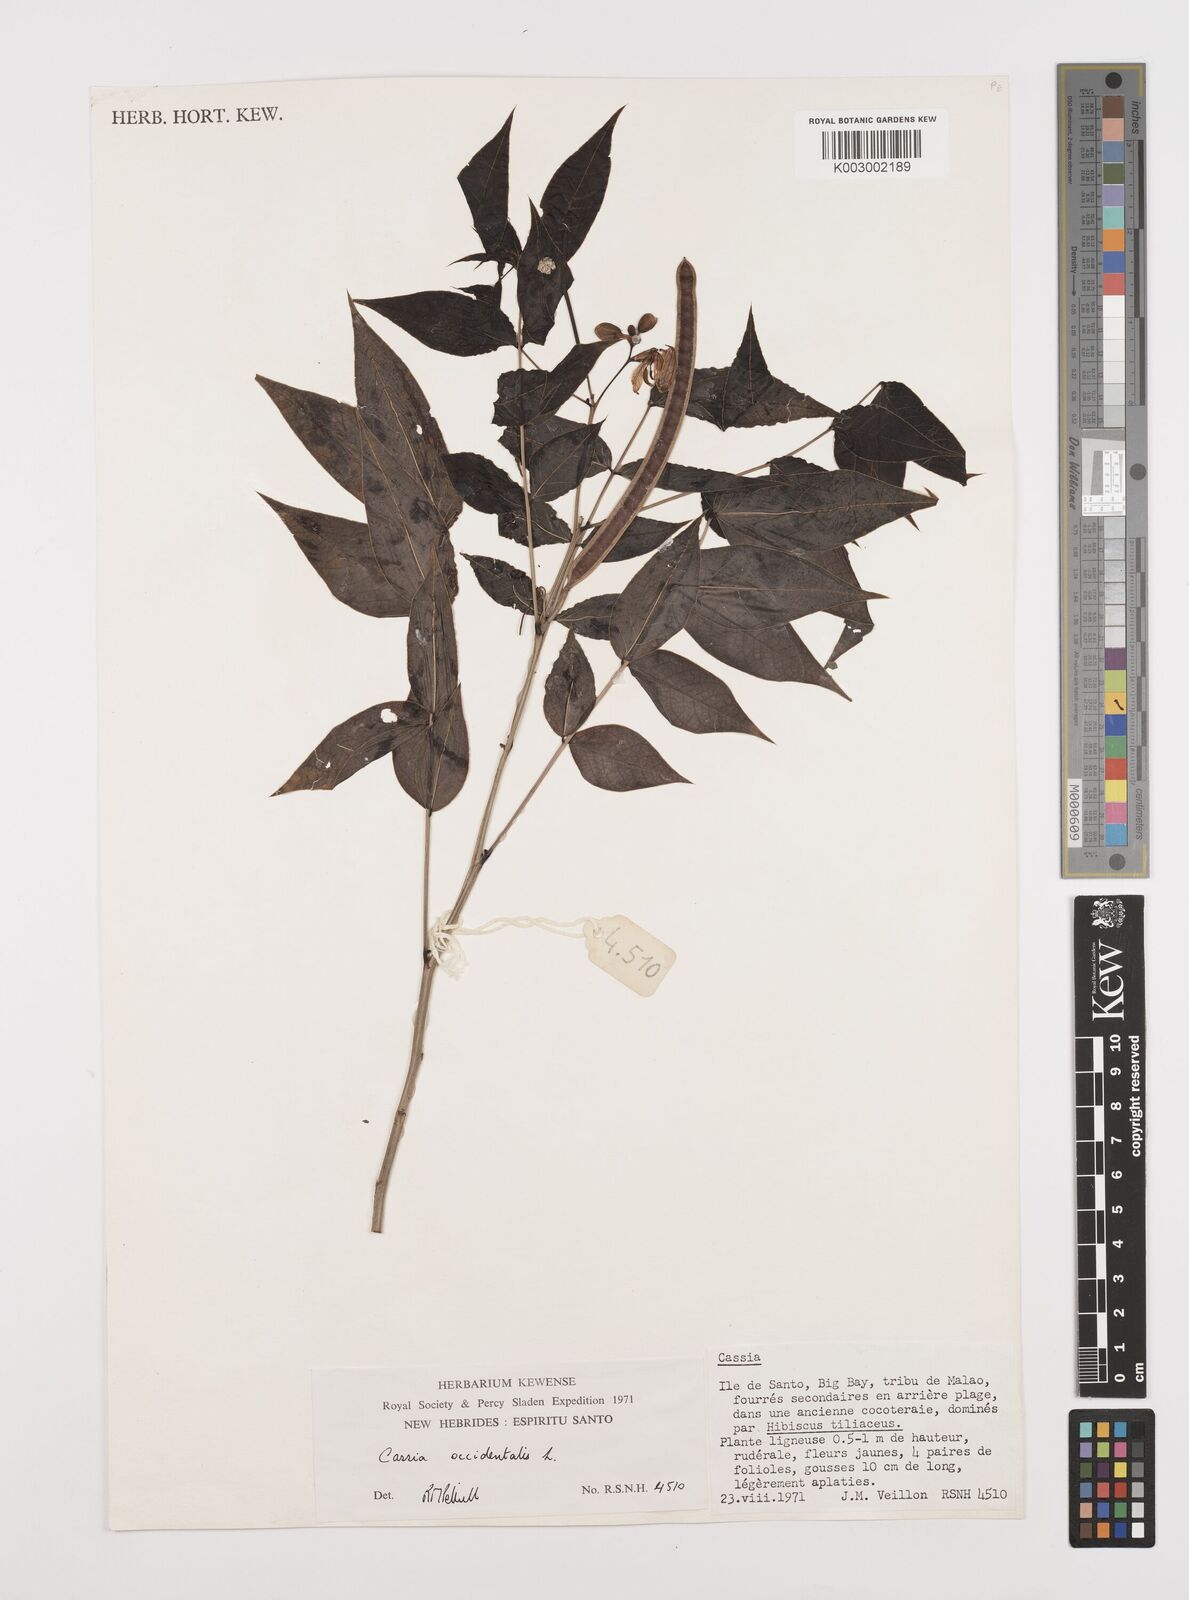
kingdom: Plantae
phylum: Tracheophyta
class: Magnoliopsida
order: Fabales
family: Fabaceae
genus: Senna
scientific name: Senna occidentalis
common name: Septicweed
